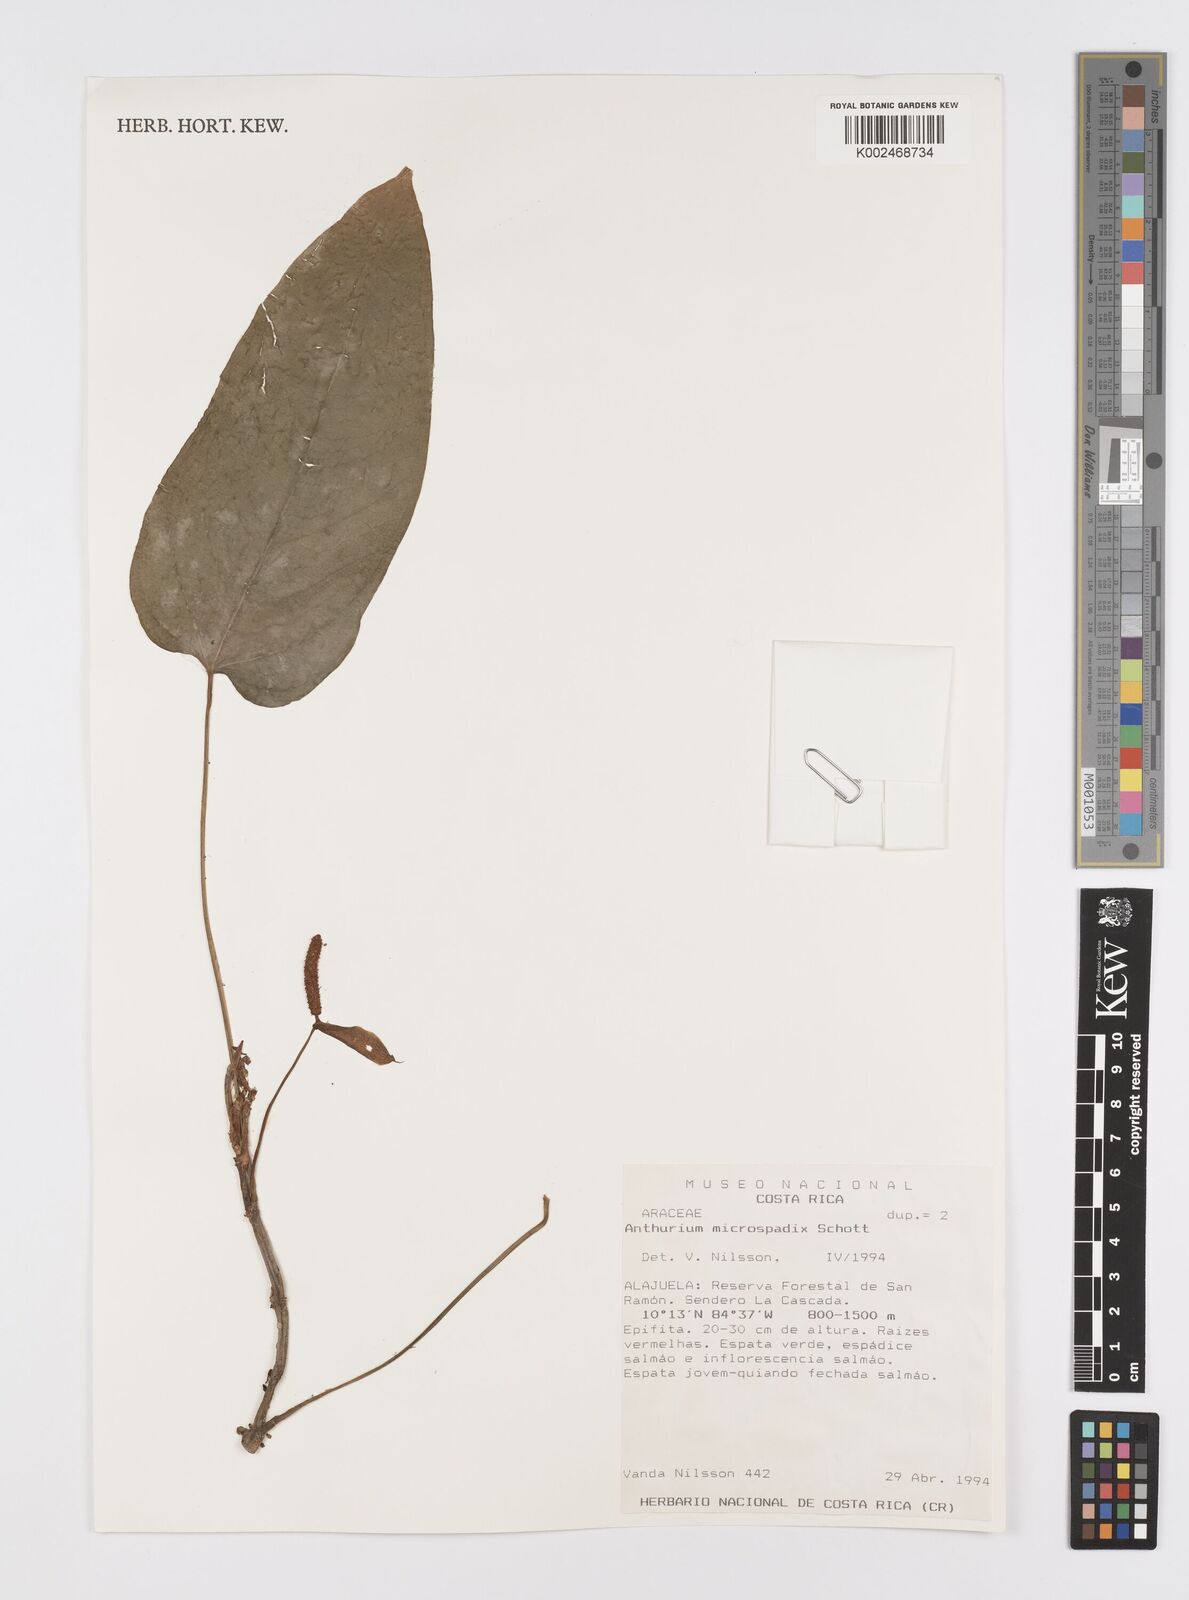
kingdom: Plantae
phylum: Tracheophyta
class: Liliopsida
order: Alismatales
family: Araceae
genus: Anthurium
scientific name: Anthurium microspadix
